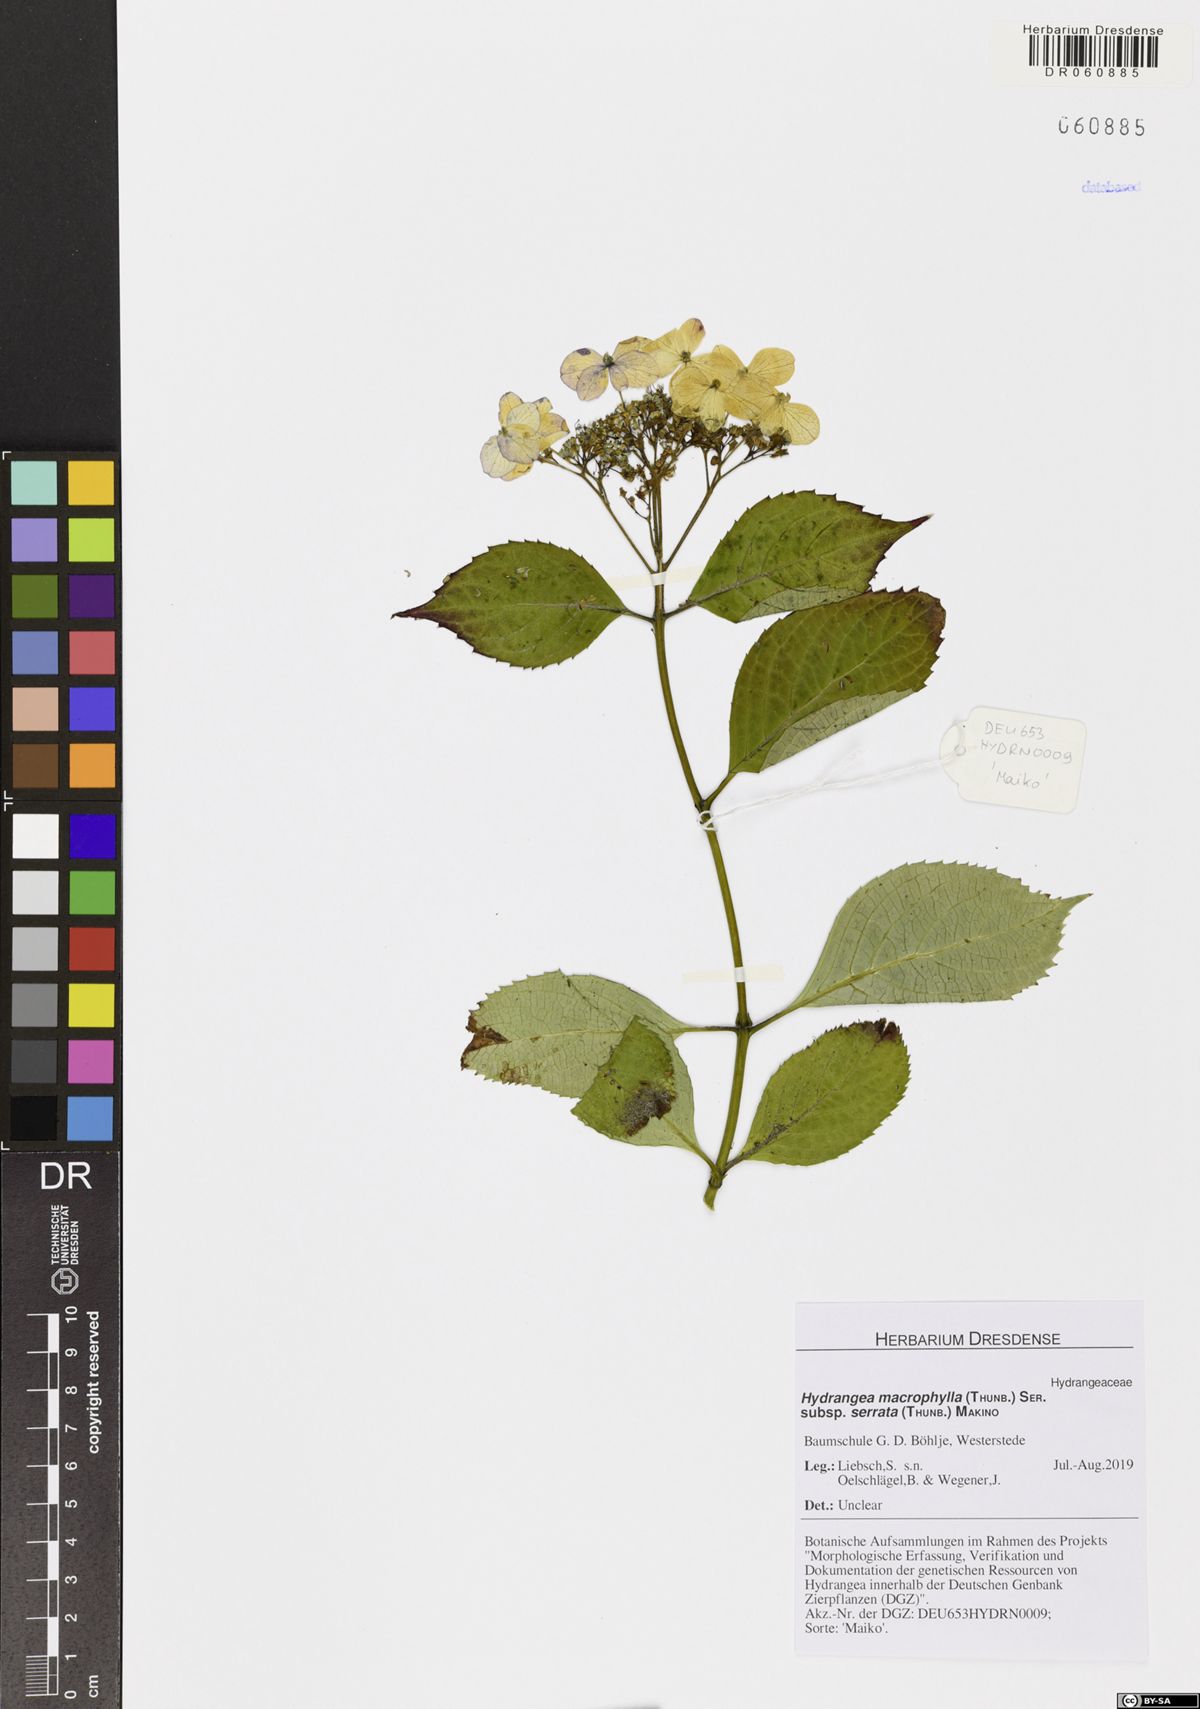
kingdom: Plantae
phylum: Tracheophyta
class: Magnoliopsida
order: Cornales
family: Hydrangeaceae
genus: Hydrangea
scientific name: Hydrangea serrata
